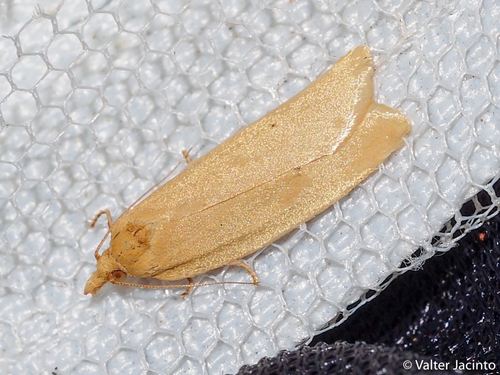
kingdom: Animalia
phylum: Arthropoda
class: Insecta
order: Lepidoptera
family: Tortricidae
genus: Avaria
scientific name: Avaria hyerana
